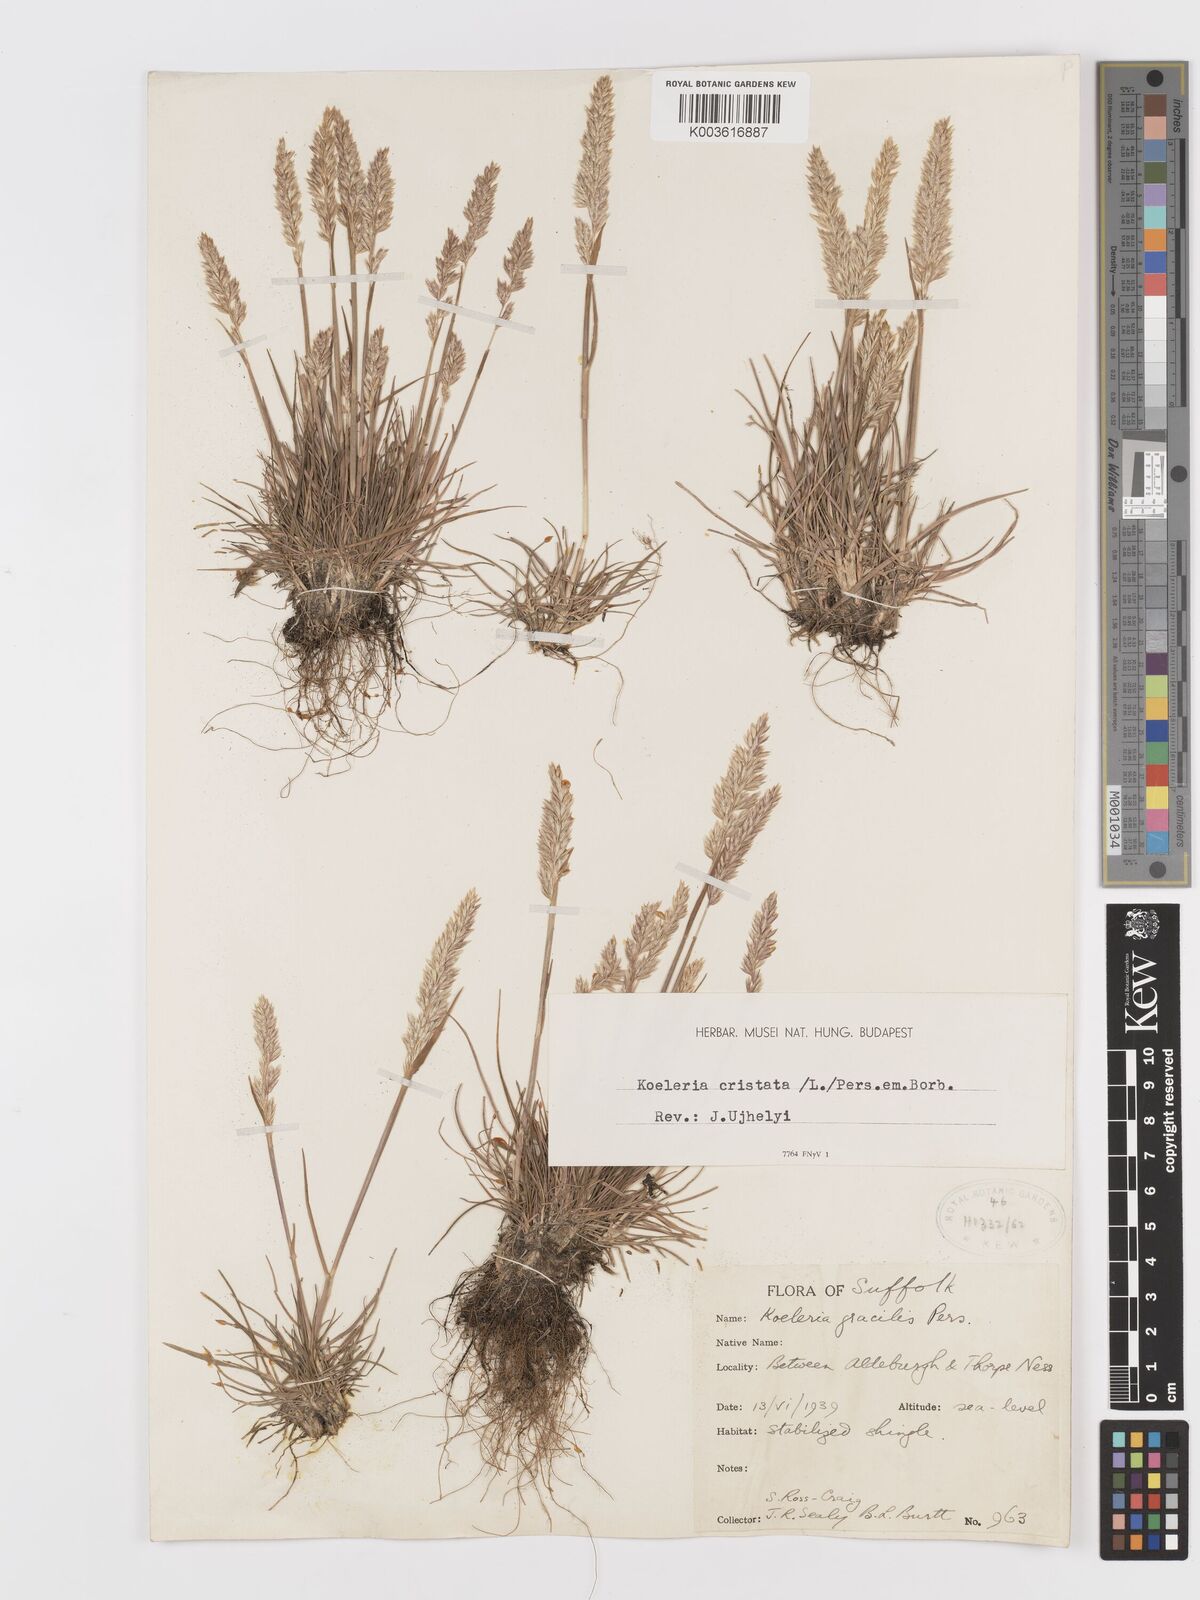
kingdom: Plantae
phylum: Tracheophyta
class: Liliopsida
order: Poales
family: Poaceae
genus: Koeleria
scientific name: Koeleria macrantha
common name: Crested hair-grass
